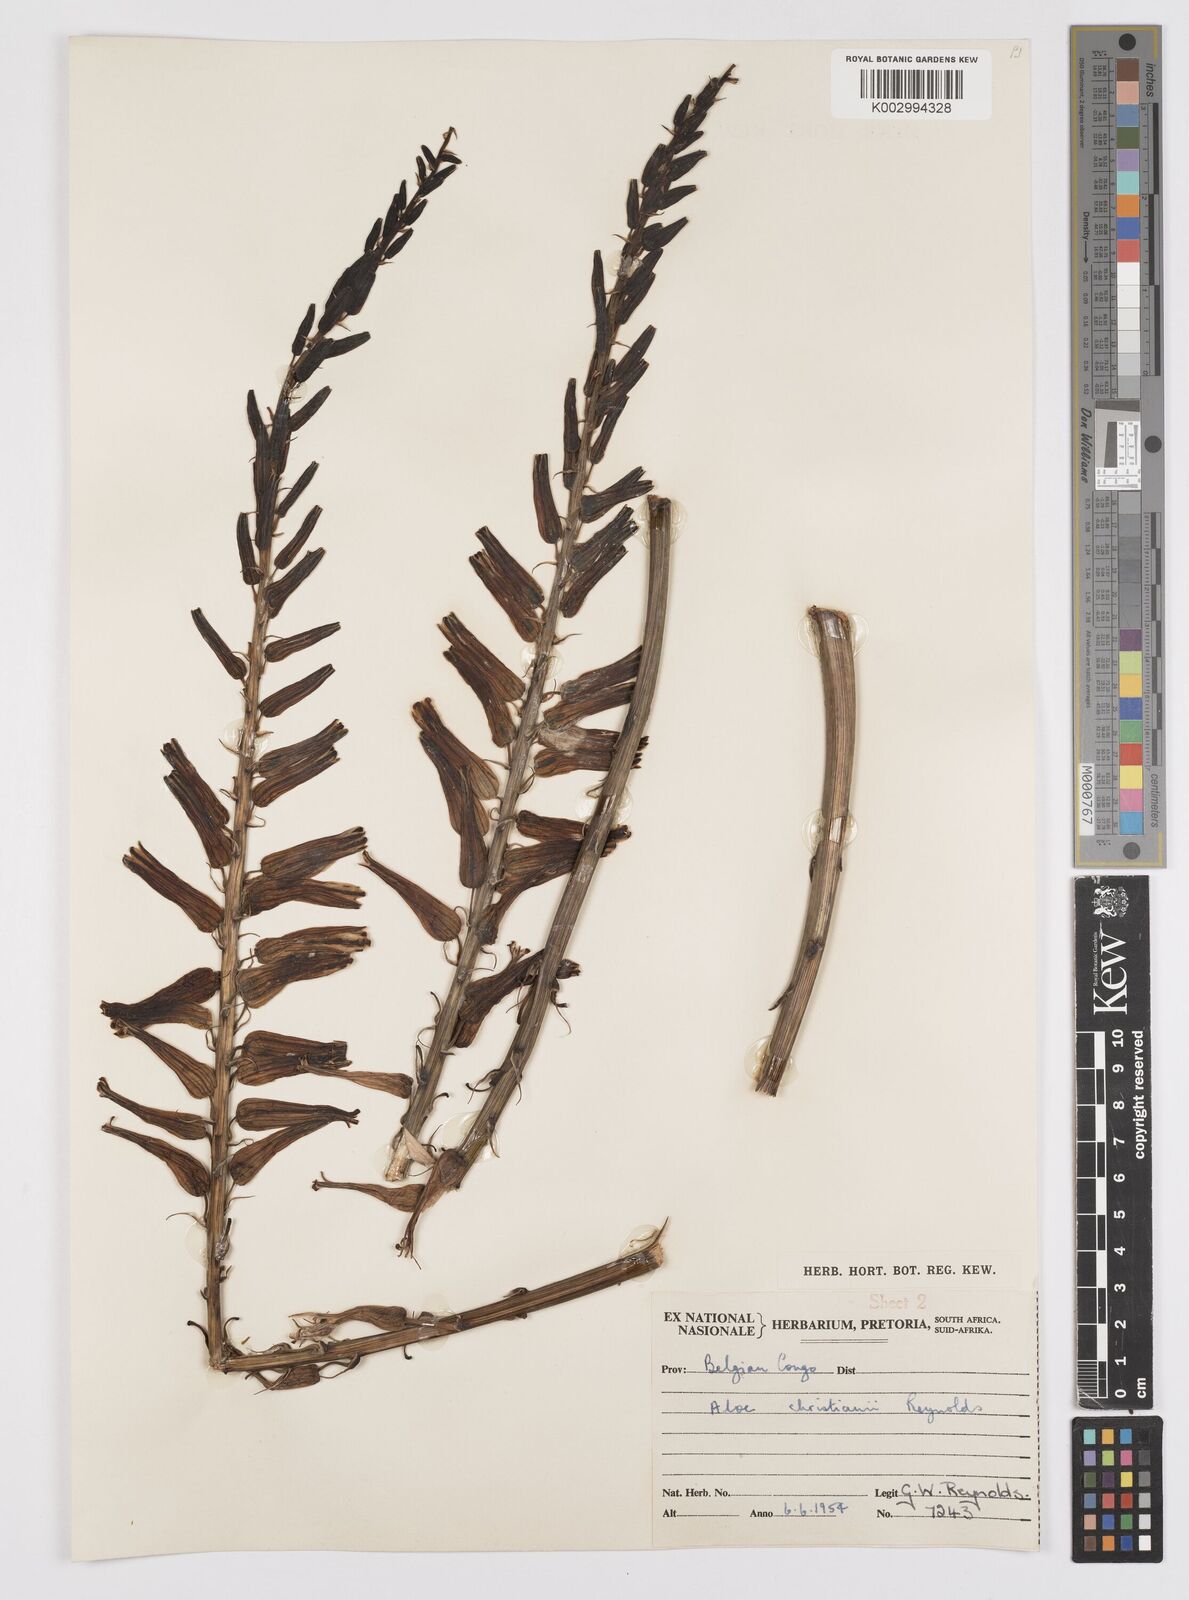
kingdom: Plantae
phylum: Tracheophyta
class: Liliopsida
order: Asparagales
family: Asphodelaceae
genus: Aloe
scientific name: Aloe christianii
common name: Basil christian's aloe
